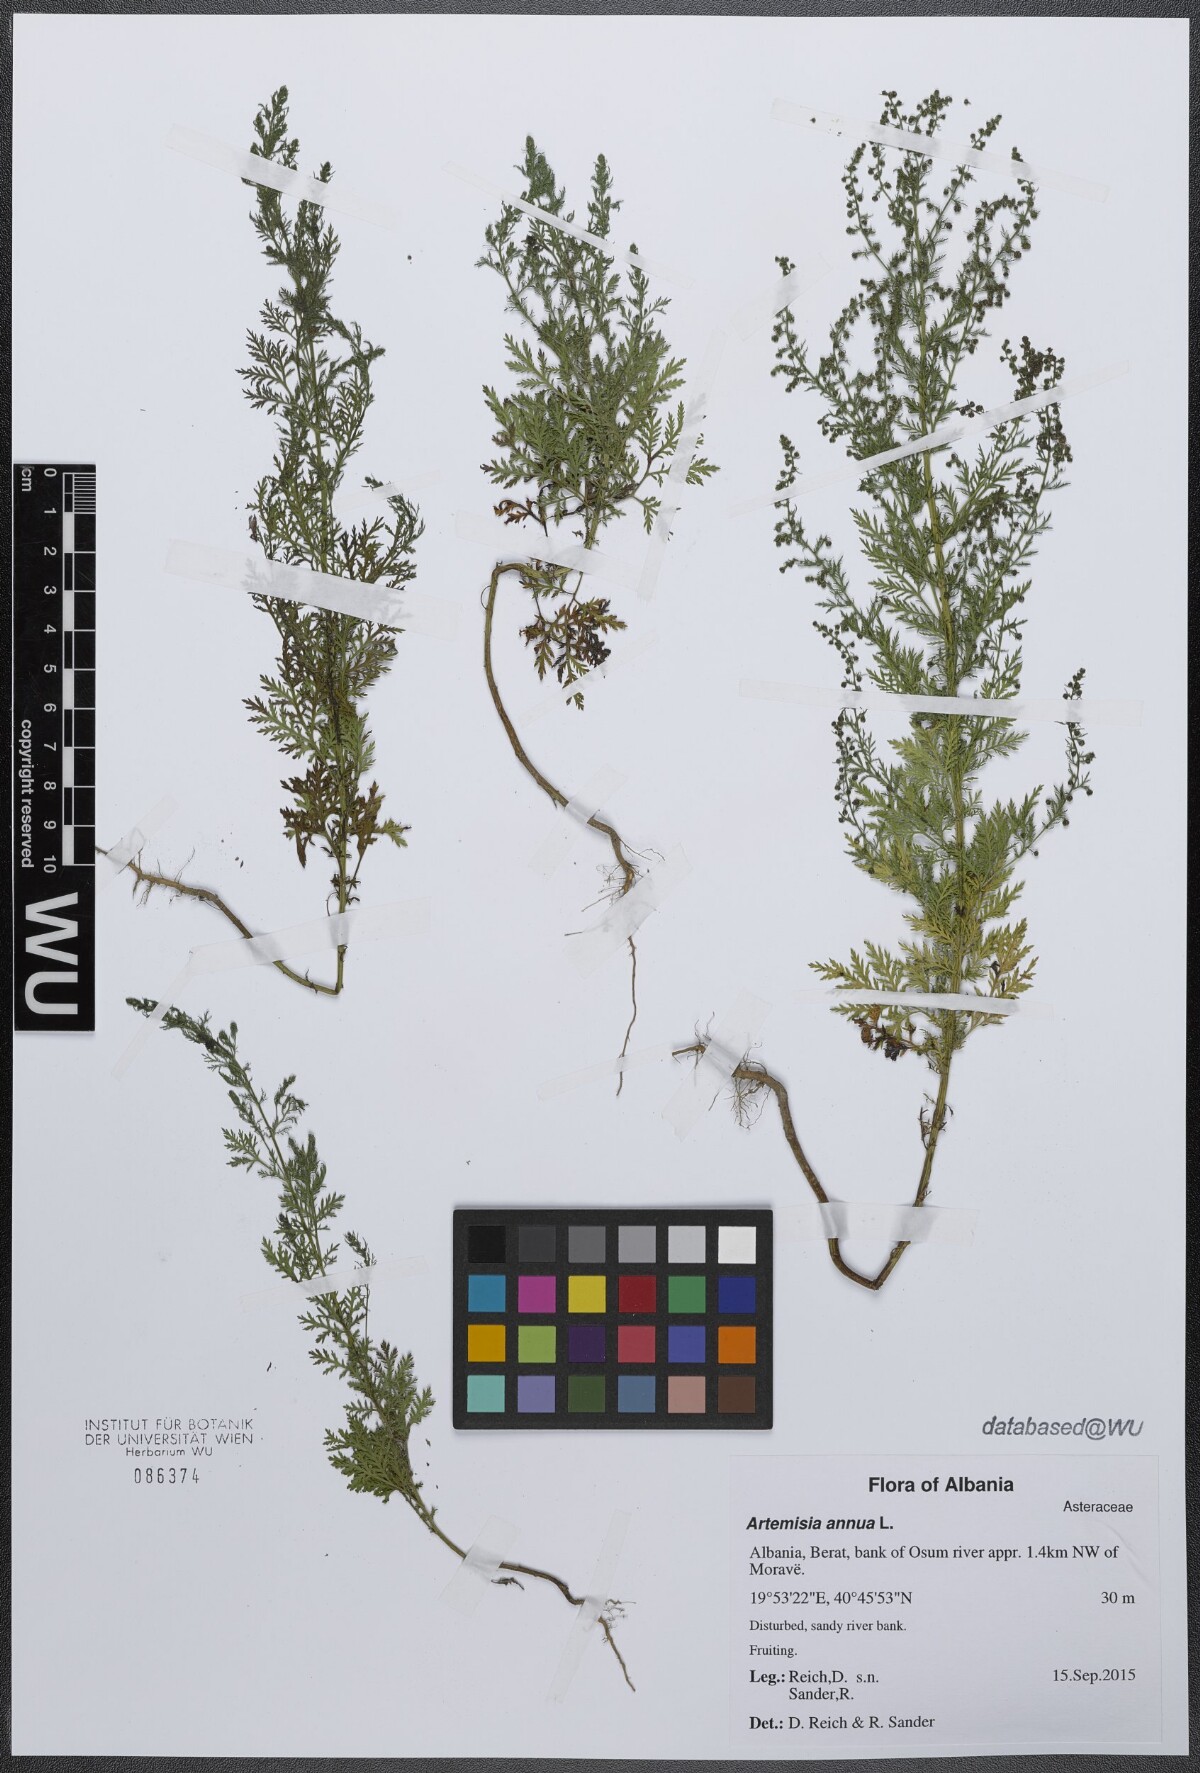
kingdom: Plantae
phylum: Tracheophyta
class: Magnoliopsida
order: Asterales
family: Asteraceae
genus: Artemisia
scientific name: Artemisia annua
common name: Sweet sagewort
